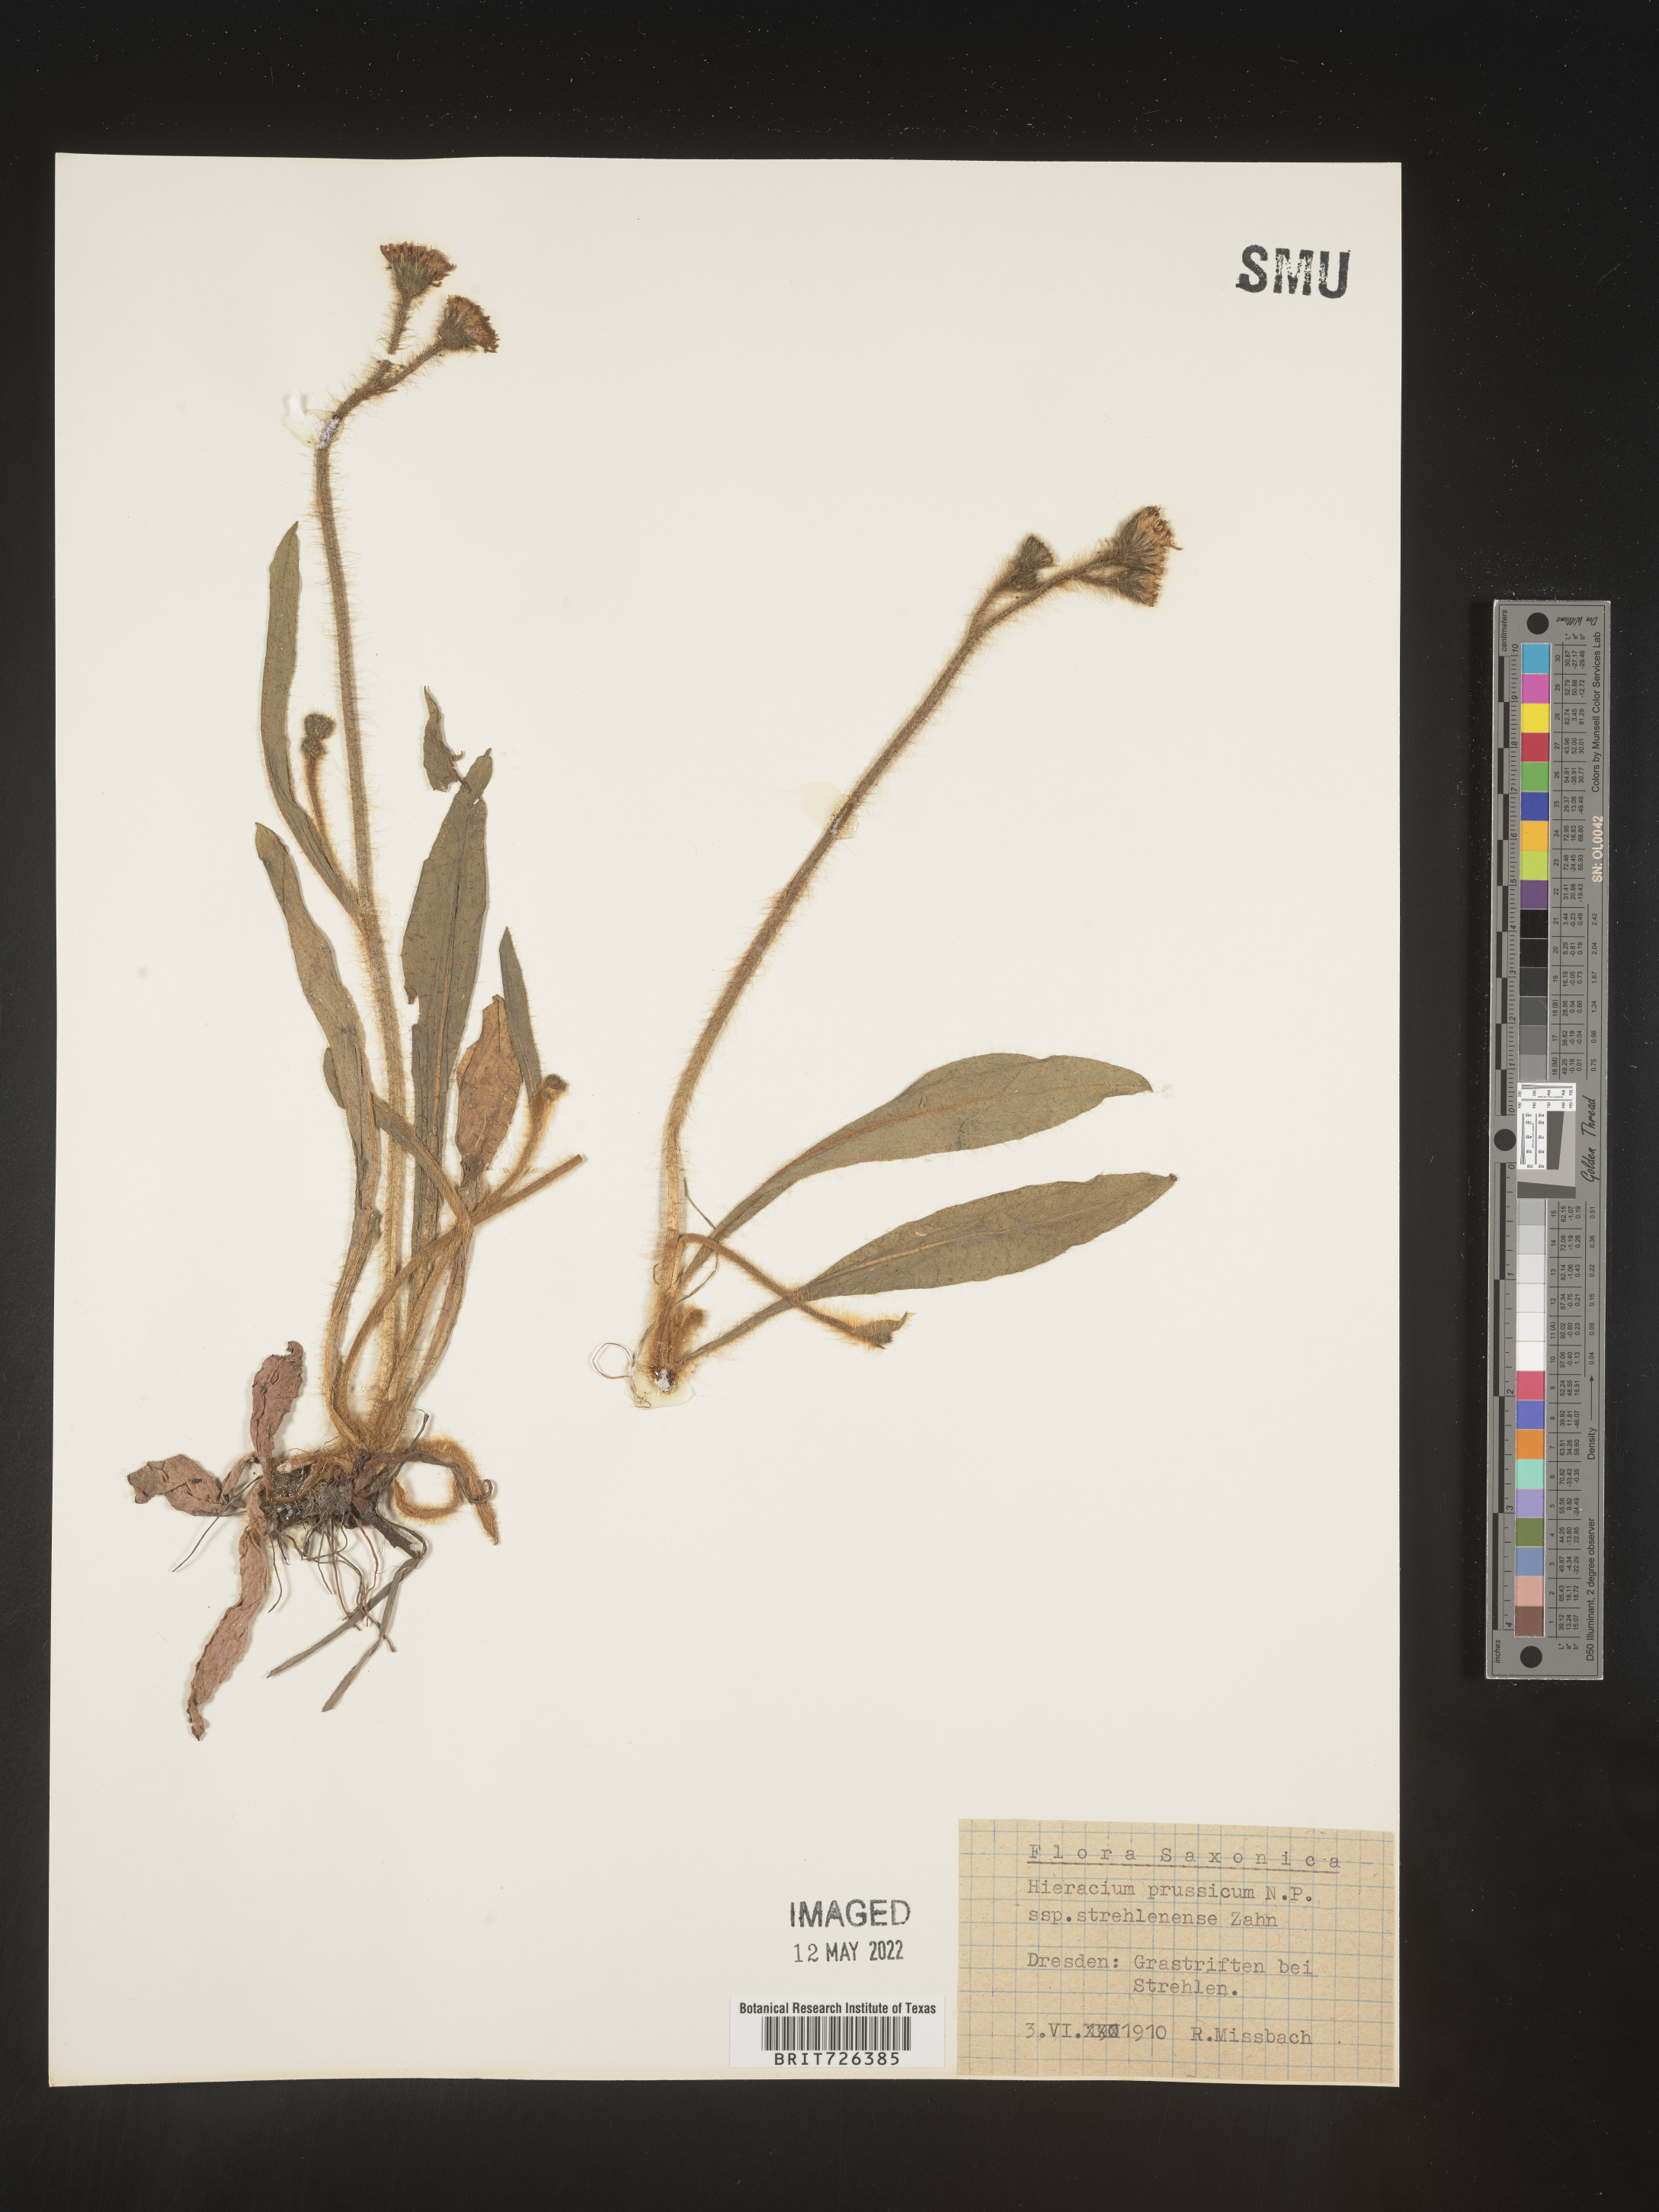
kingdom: Plantae
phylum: Tracheophyta
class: Magnoliopsida
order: Asterales
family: Asteraceae
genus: Hieracium
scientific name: Hieracium
